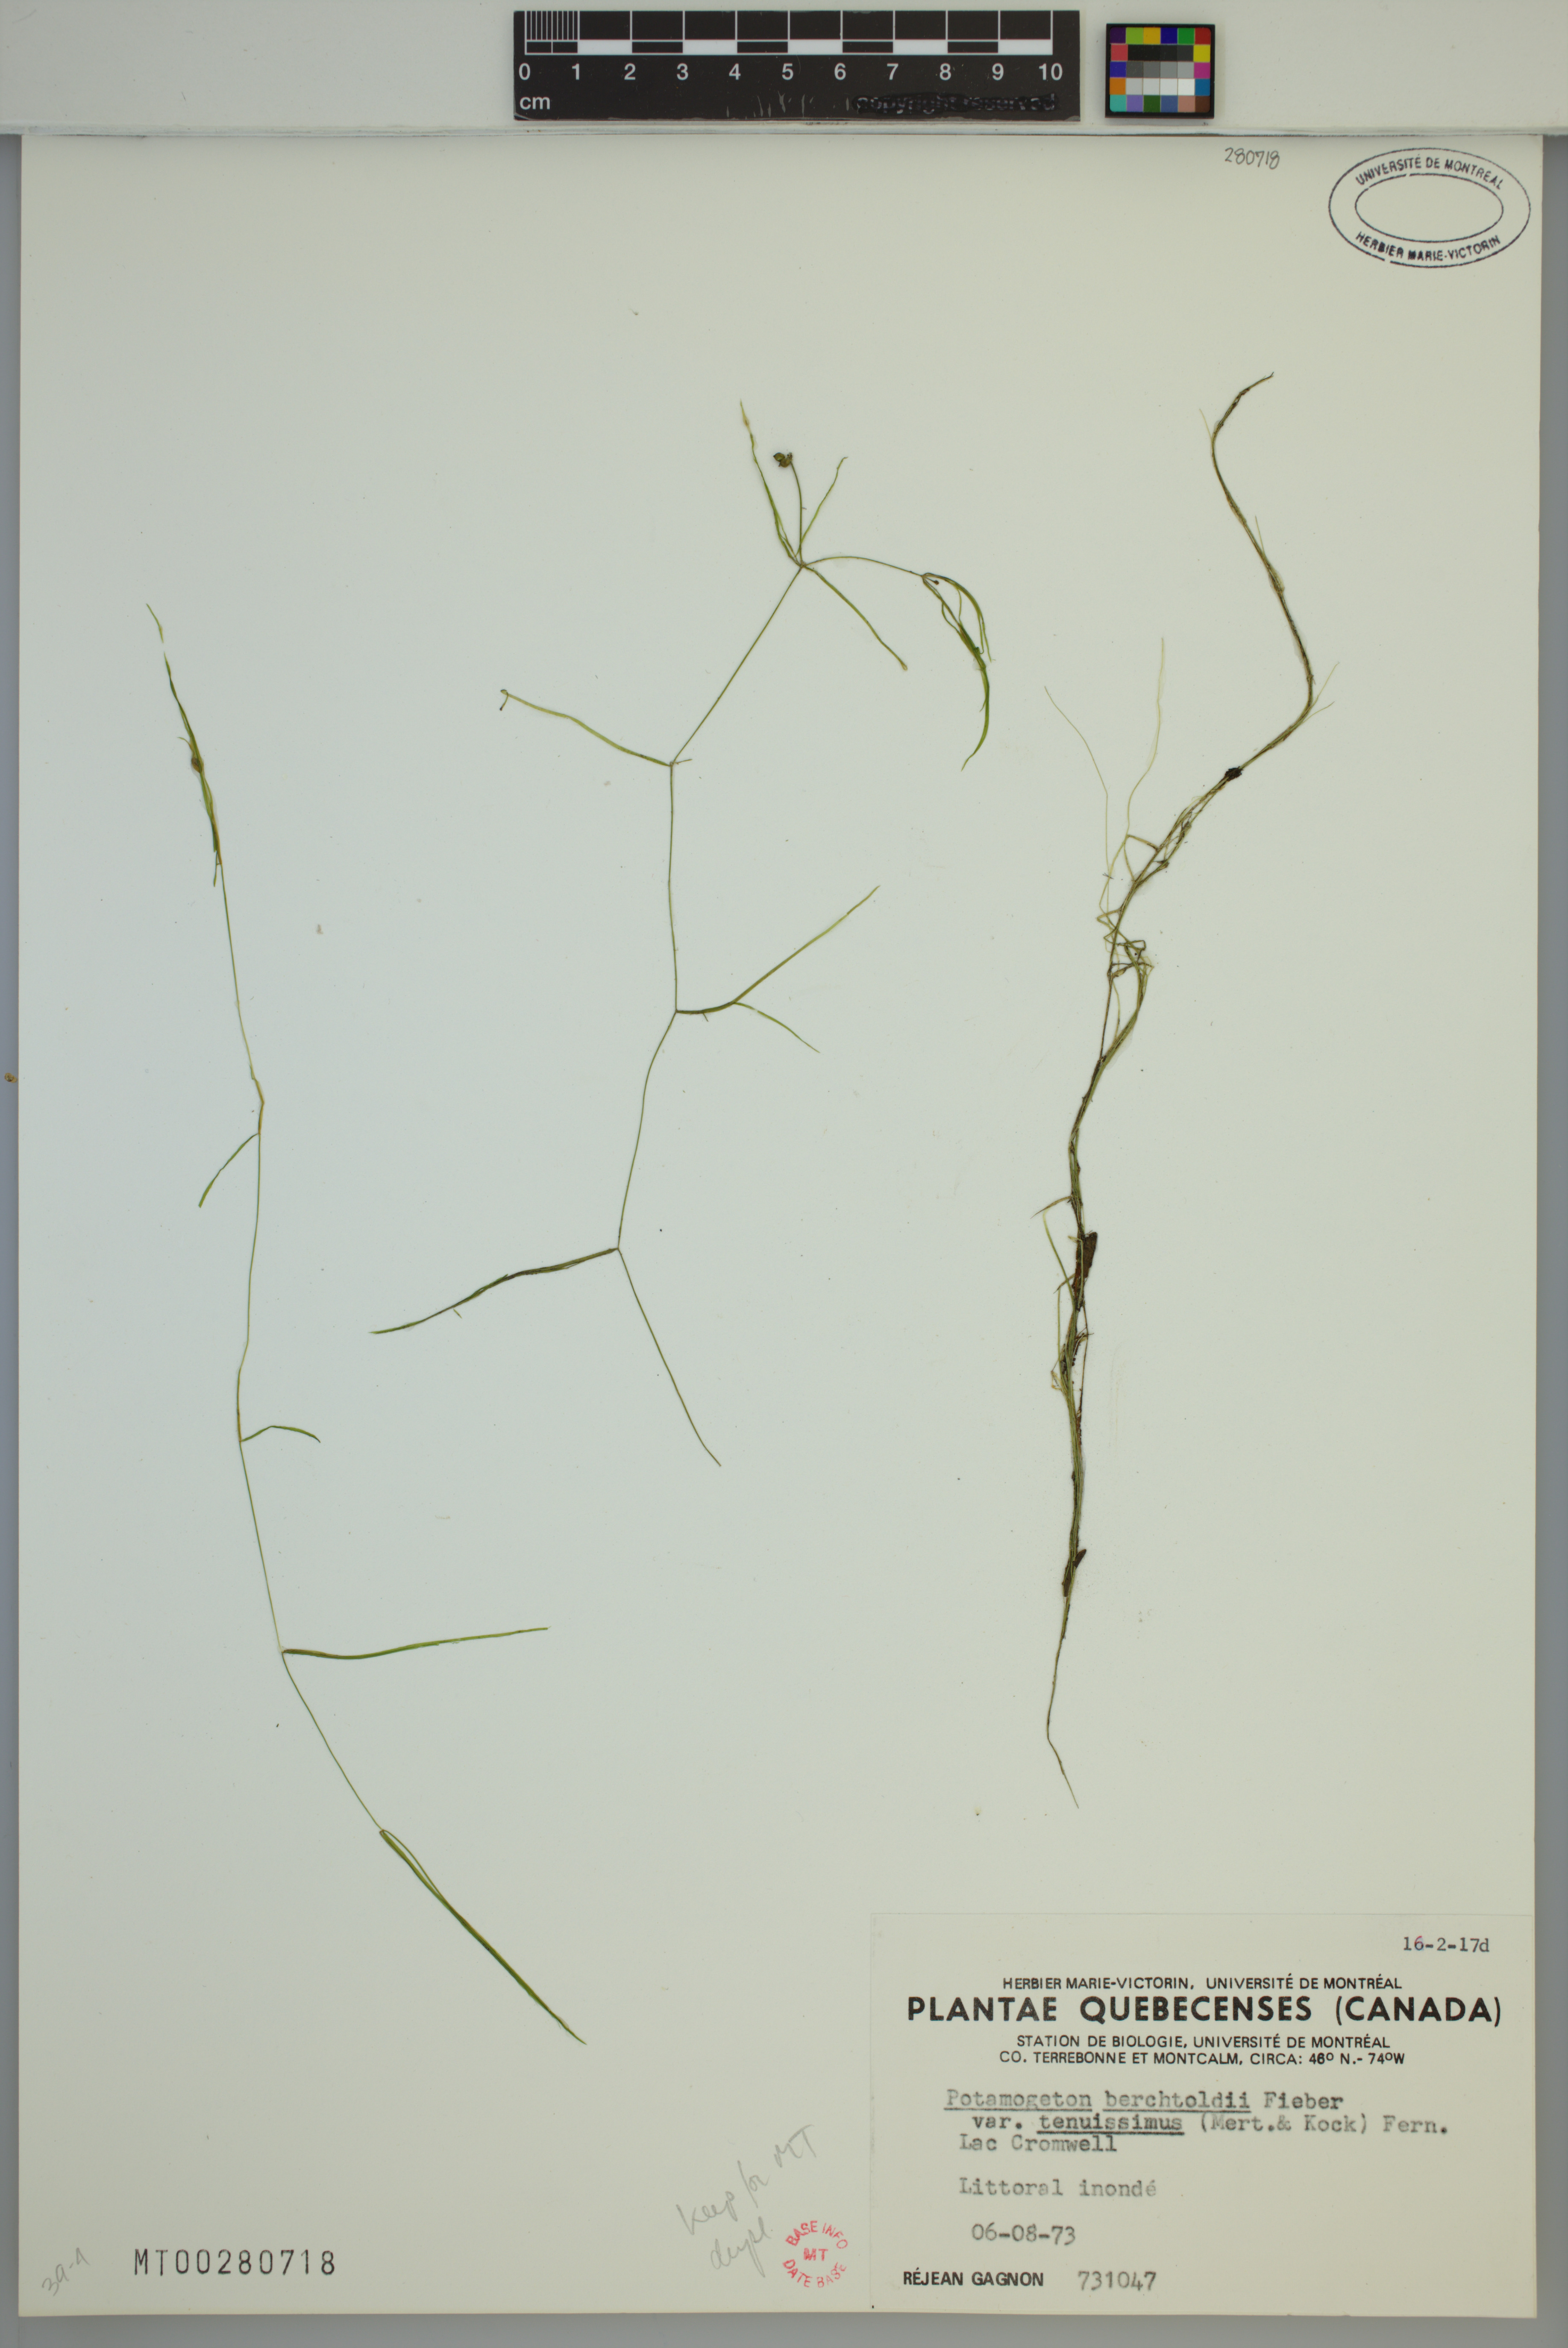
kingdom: Plantae
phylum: Tracheophyta
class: Liliopsida
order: Alismatales
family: Potamogetonaceae
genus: Potamogeton
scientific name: Potamogeton berchtoldii
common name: Small pondweed
